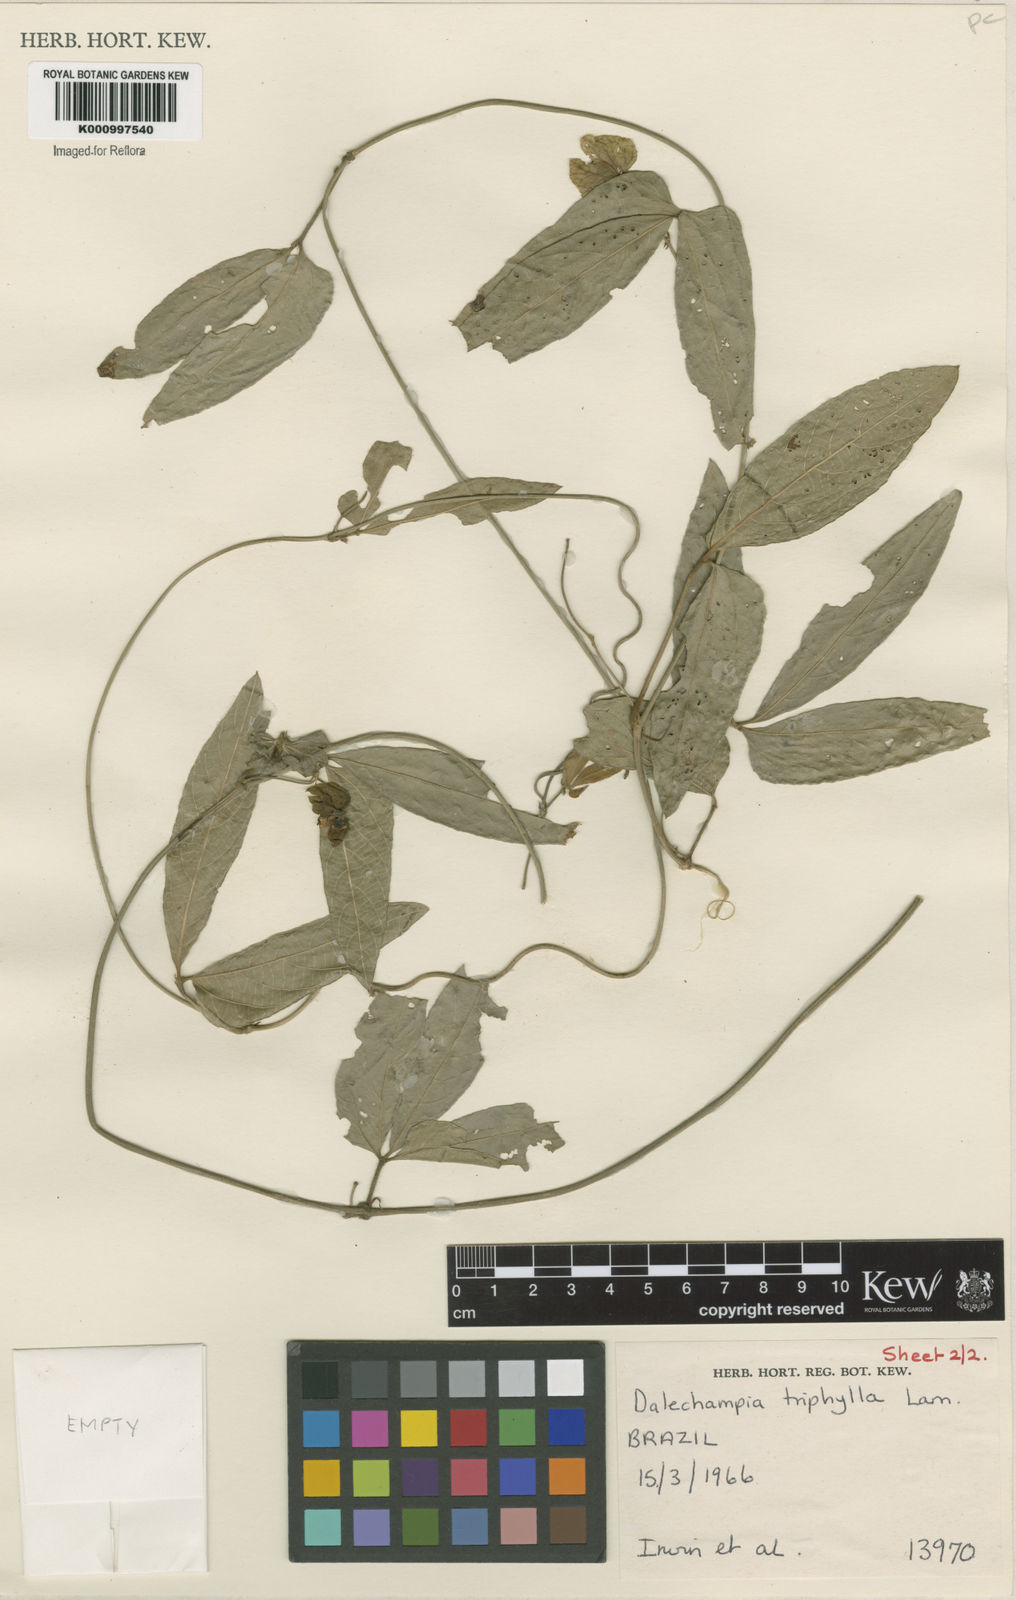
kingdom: Plantae
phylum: Tracheophyta
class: Magnoliopsida
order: Malpighiales
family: Euphorbiaceae
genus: Dalechampia
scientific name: Dalechampia triphylla
